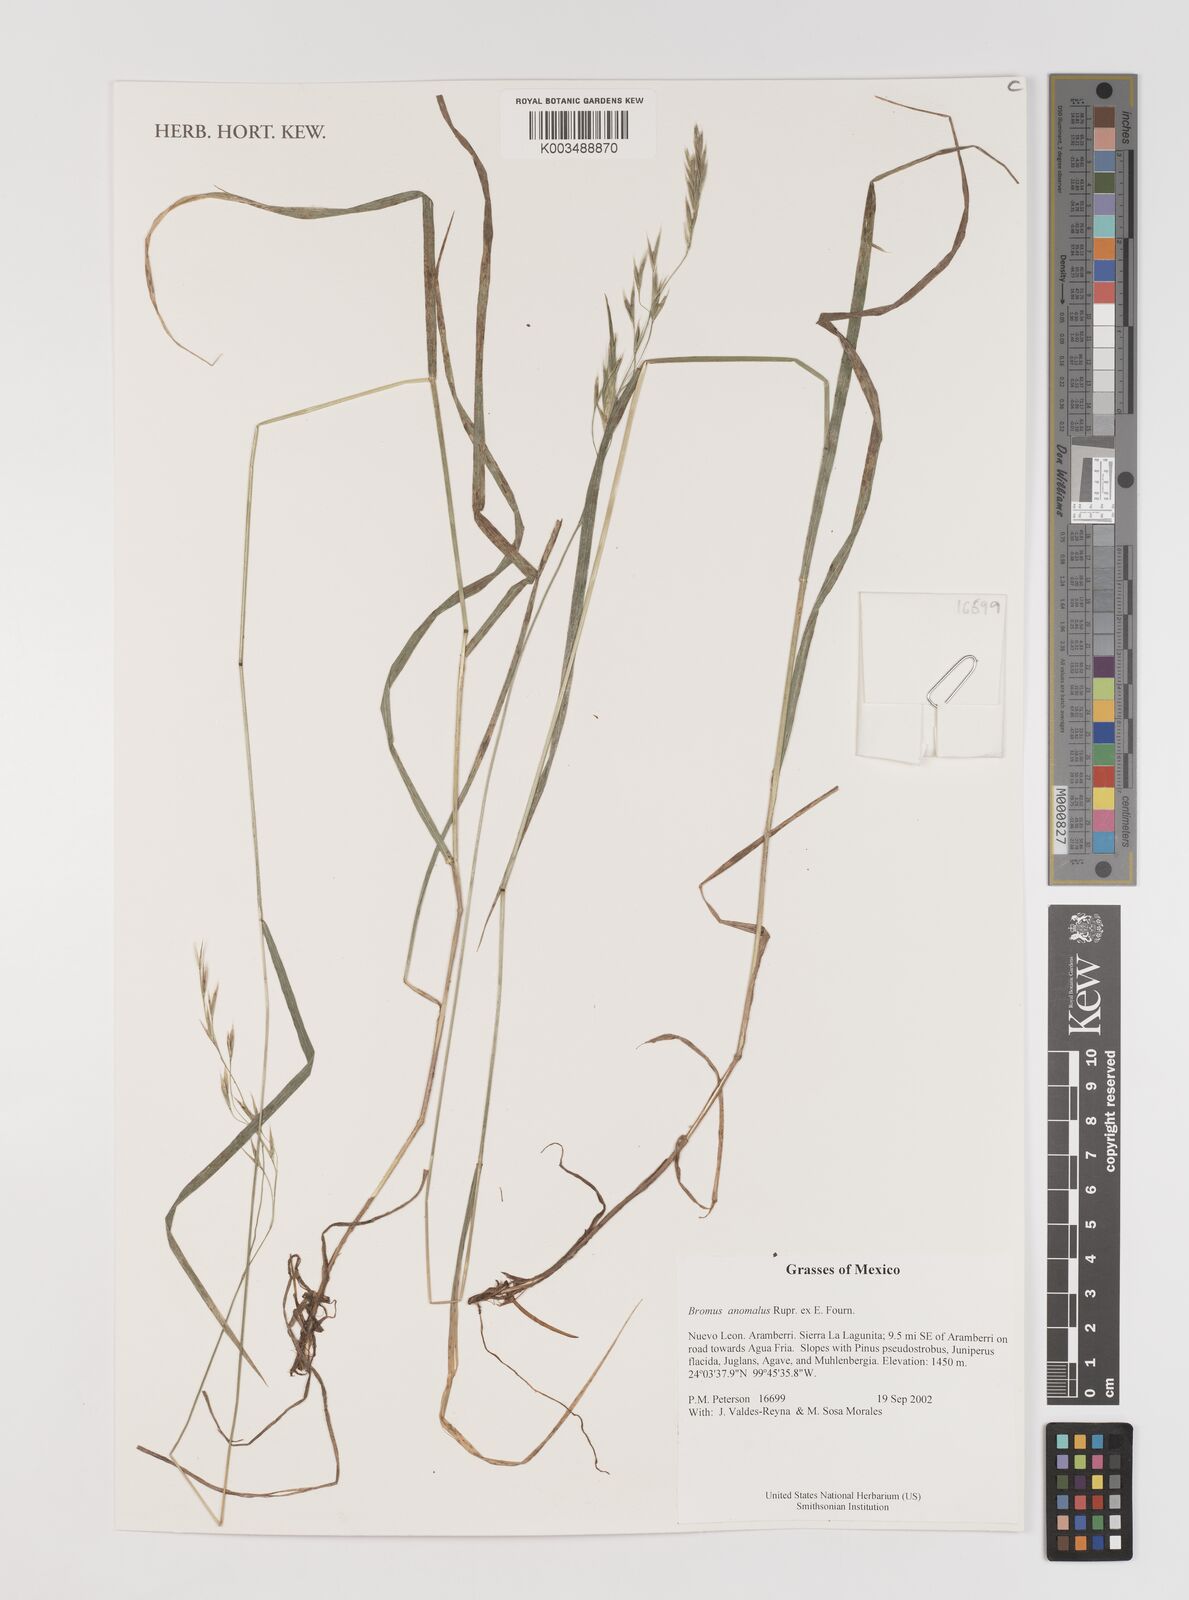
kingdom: Plantae
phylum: Tracheophyta
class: Liliopsida
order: Poales
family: Poaceae
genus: Bromus
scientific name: Bromus anomalus
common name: Nodding brome
